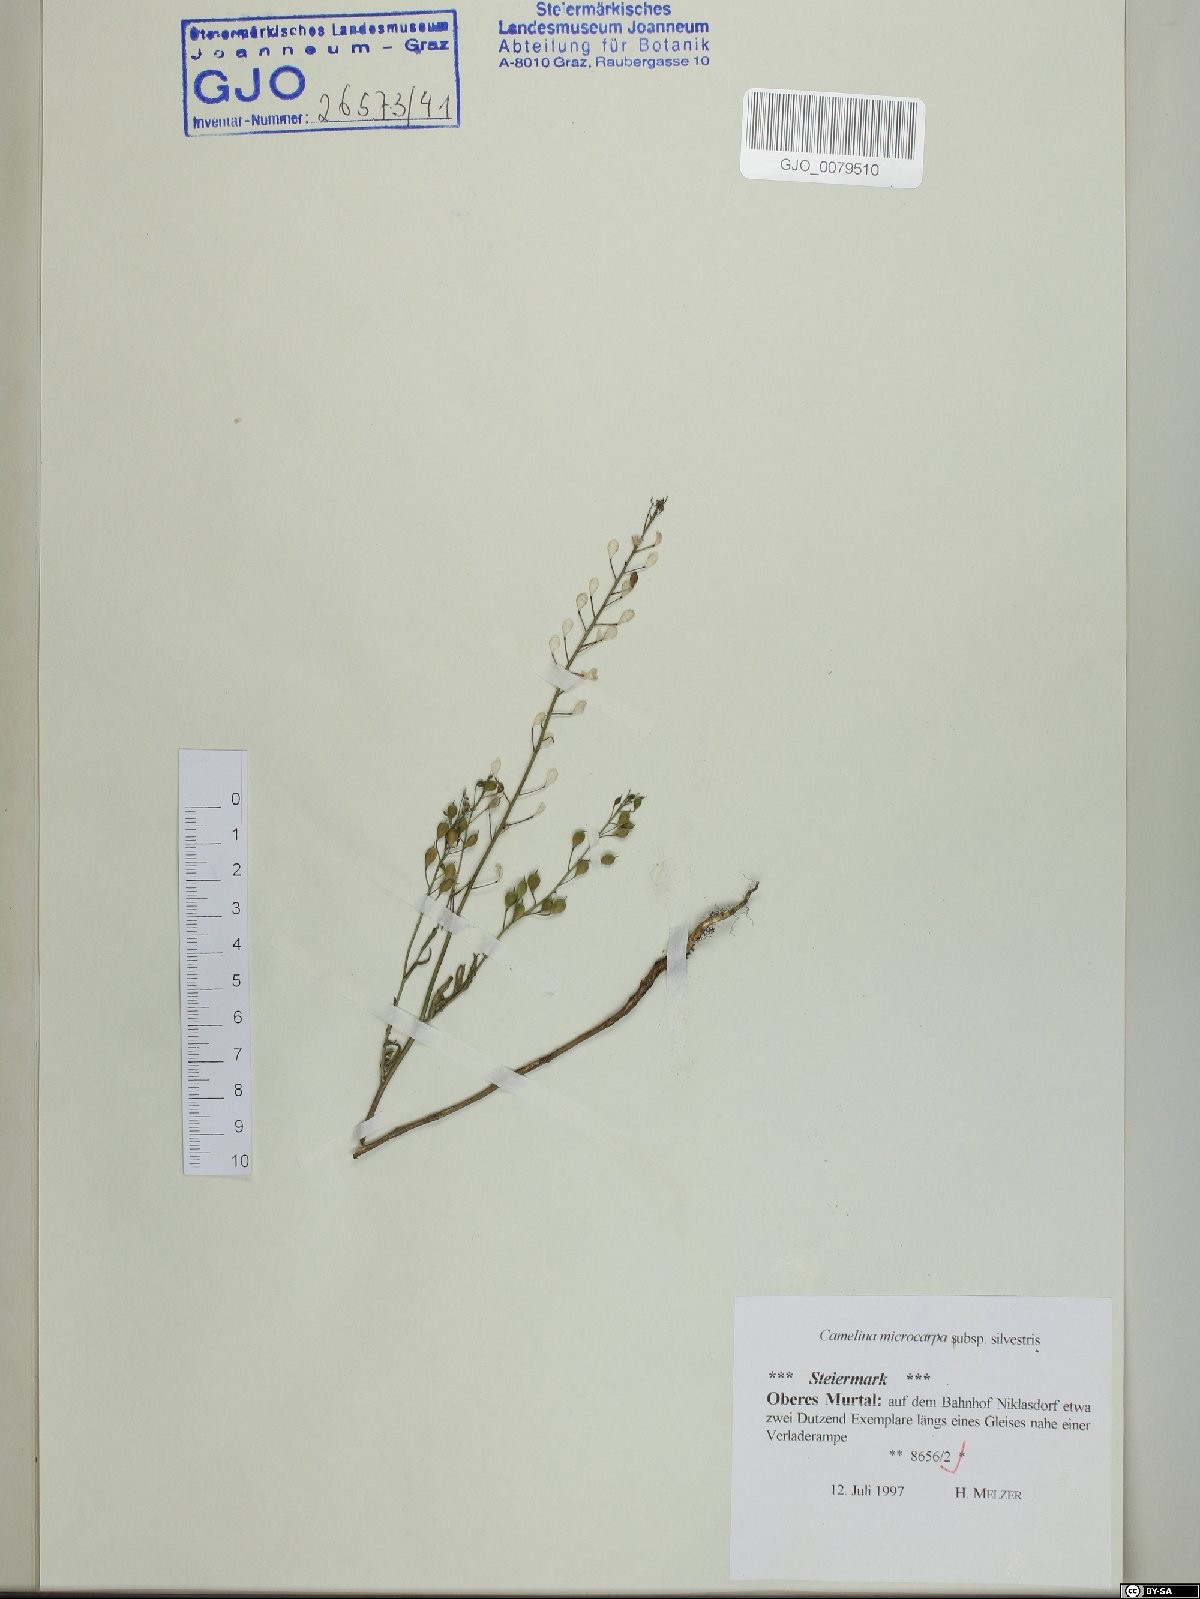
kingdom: Plantae
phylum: Tracheophyta
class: Magnoliopsida
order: Brassicales
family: Brassicaceae
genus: Camelina
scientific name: Camelina microcarpa
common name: Lesser gold-of-pleasure
